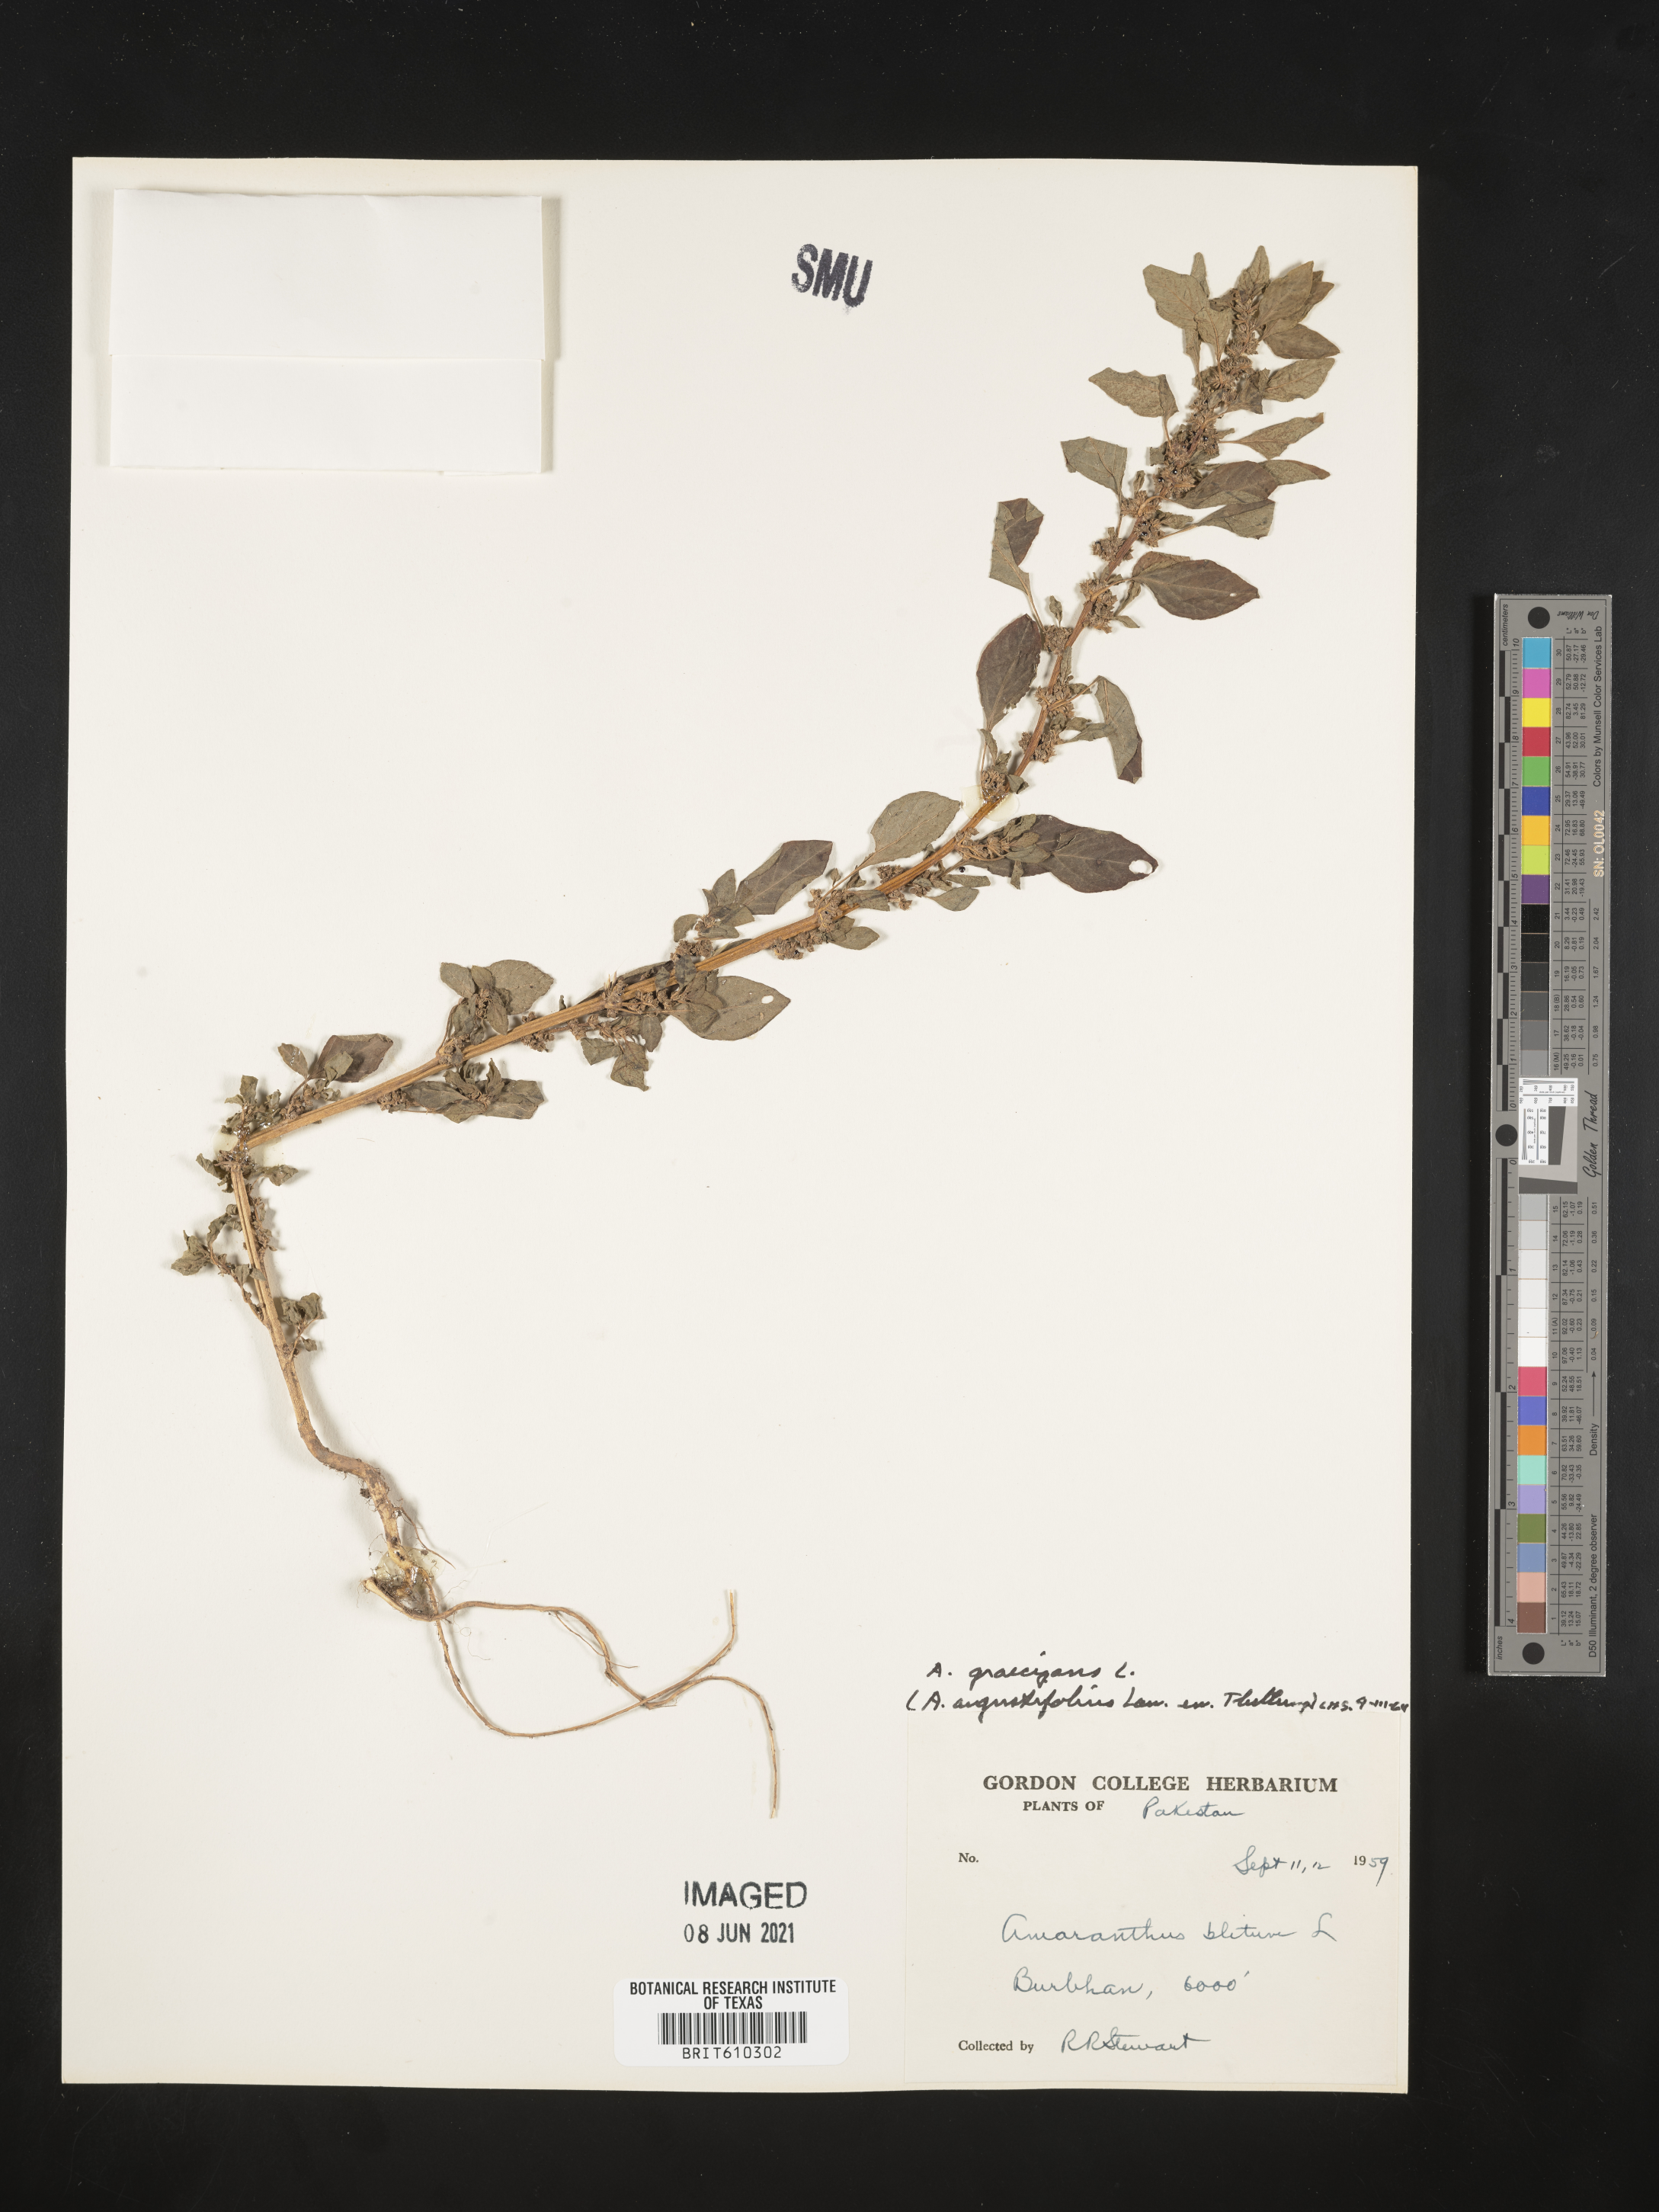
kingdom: Plantae
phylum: Tracheophyta
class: Magnoliopsida
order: Caryophyllales
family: Amaranthaceae
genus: Amaranthus
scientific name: Amaranthus graecizans
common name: Mediterranean amaranth
